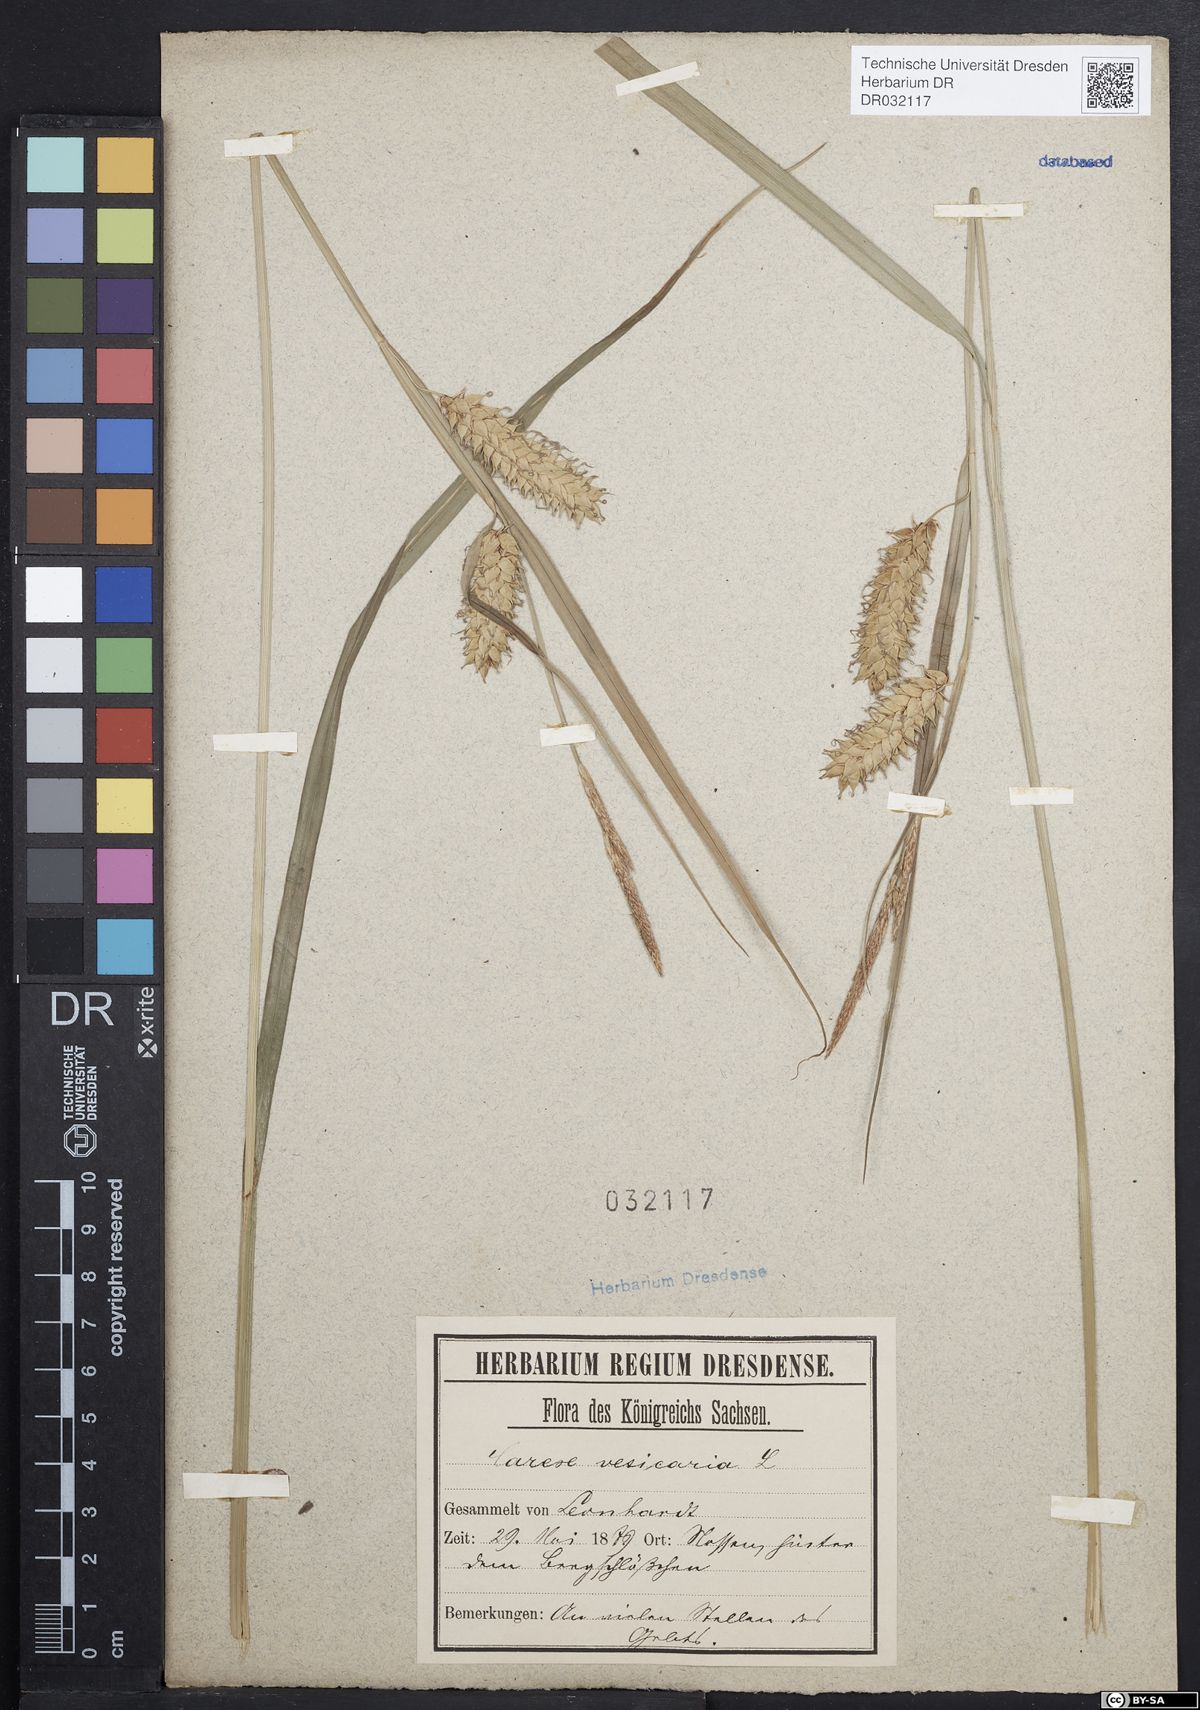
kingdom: Plantae
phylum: Tracheophyta
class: Liliopsida
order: Poales
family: Cyperaceae
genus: Carex
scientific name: Carex vesicaria
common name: Bladder-sedge
